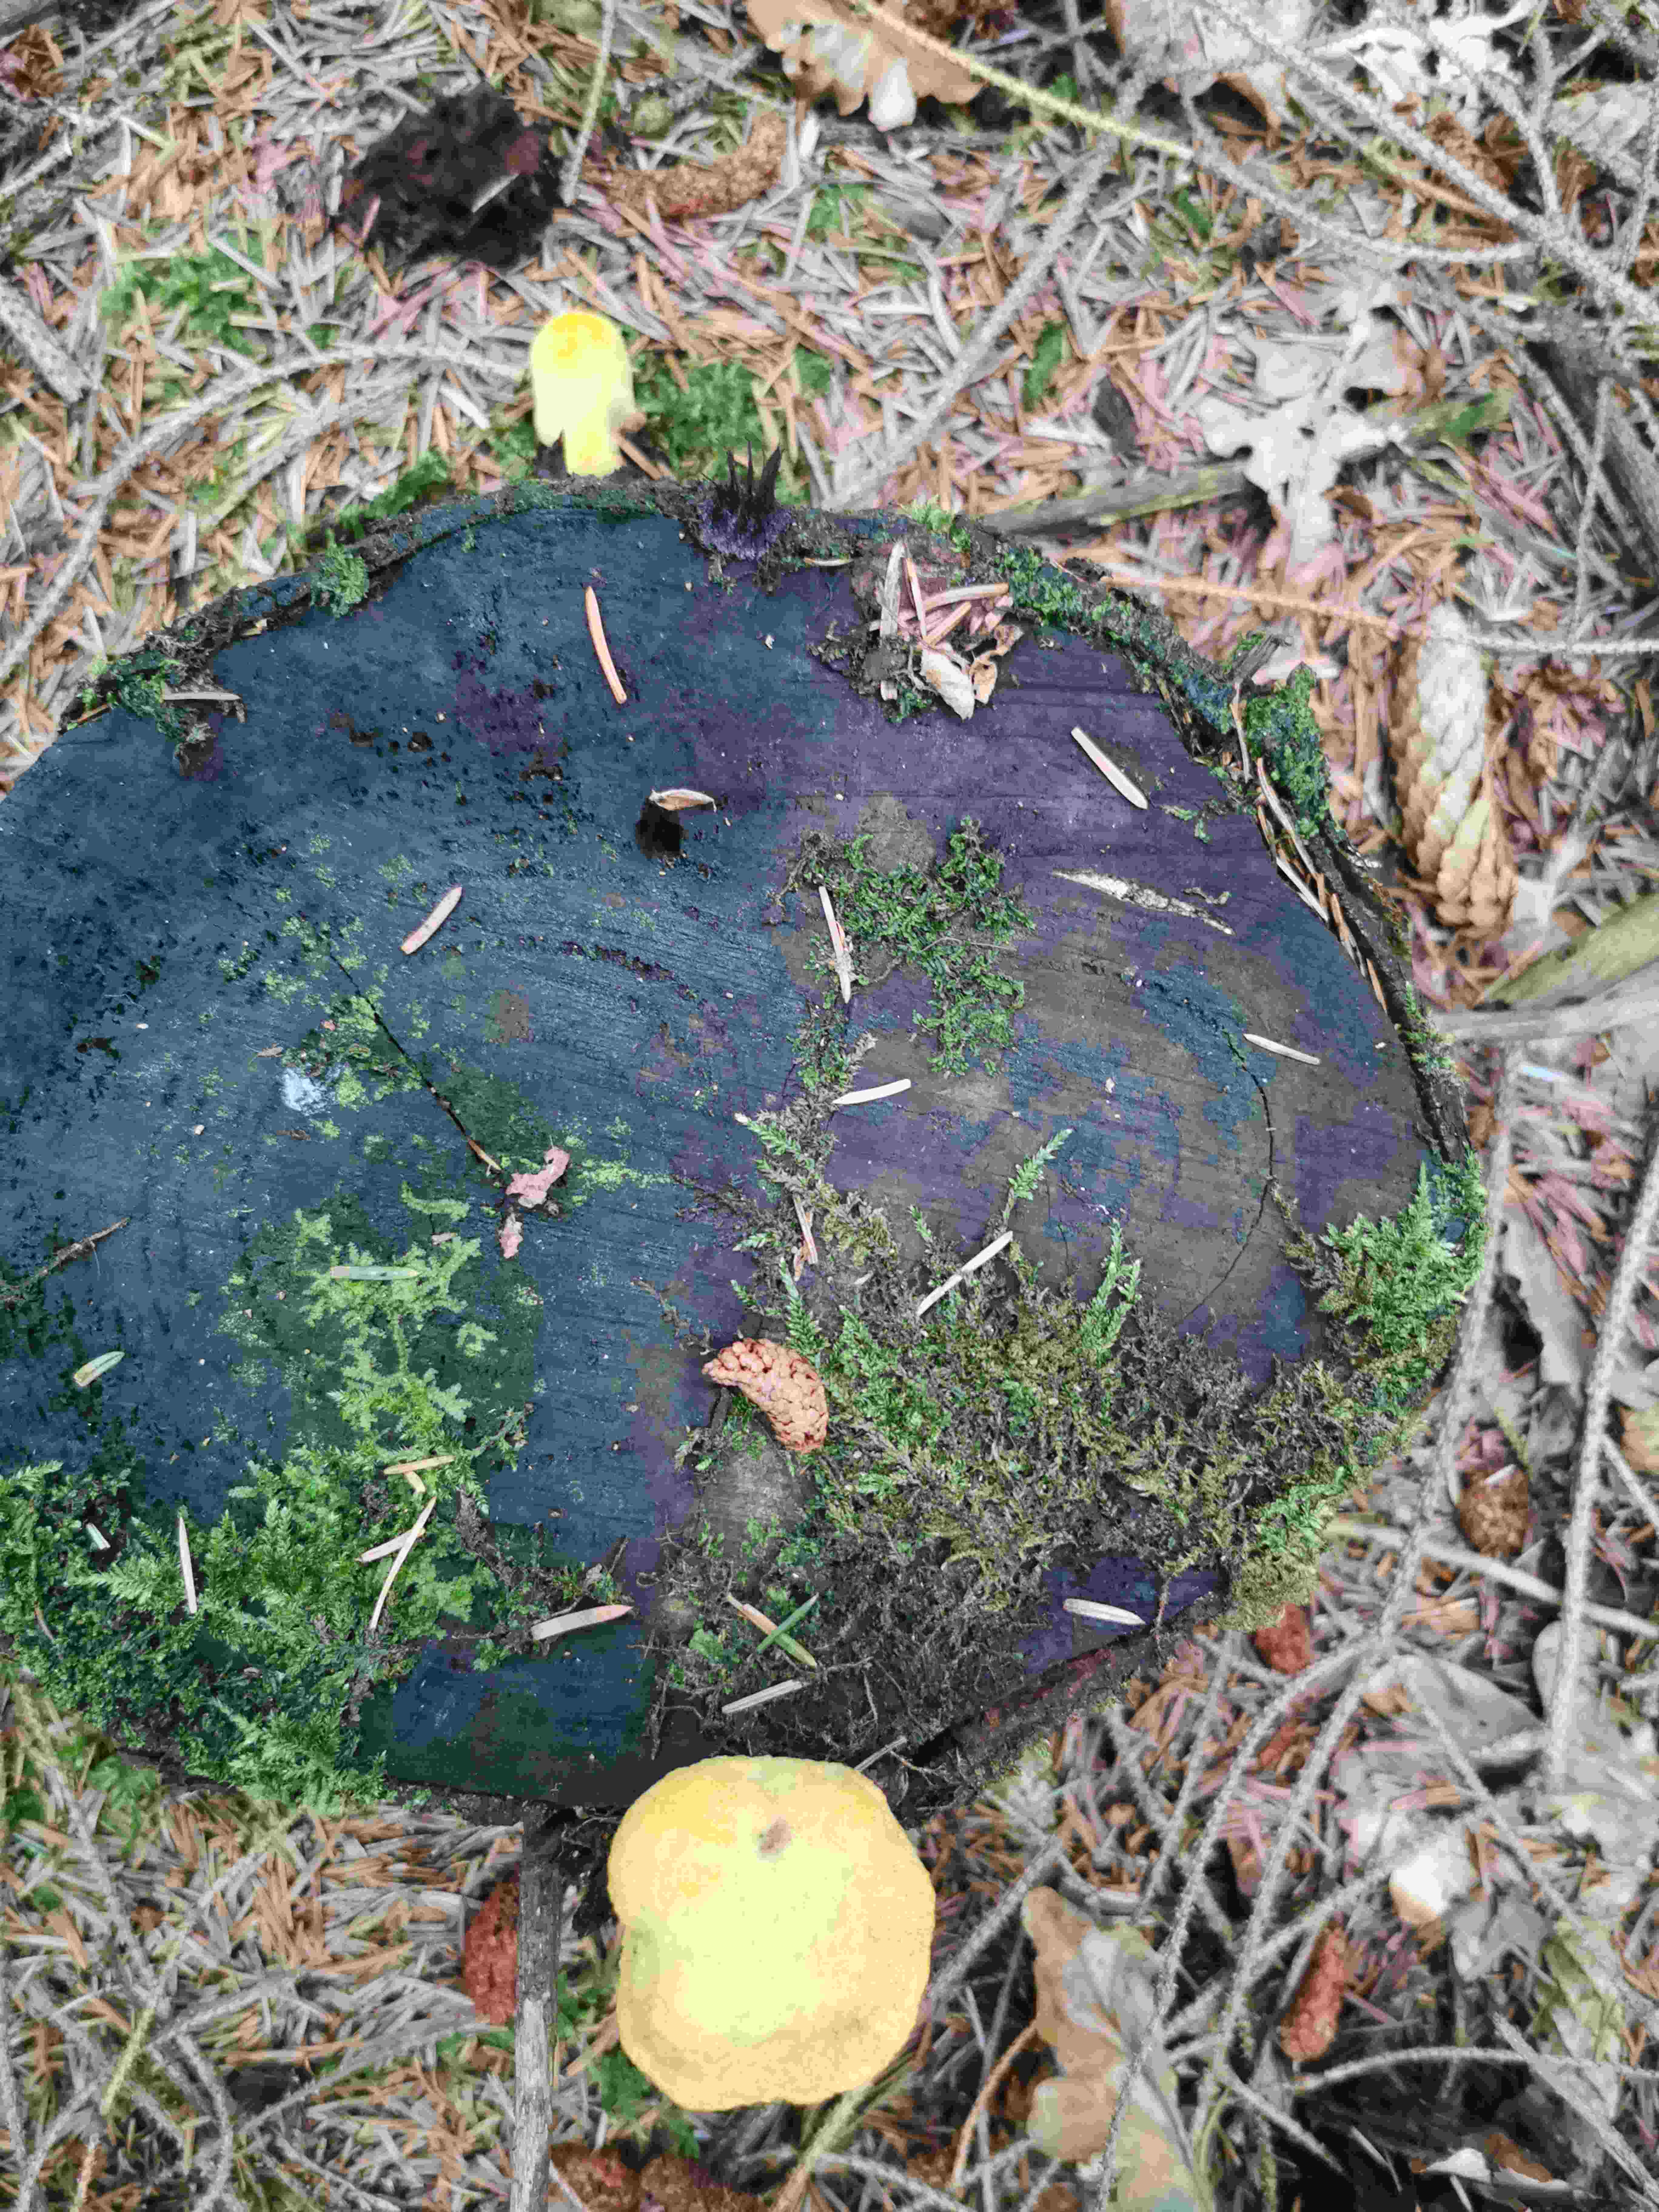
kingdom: Fungi
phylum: Basidiomycota
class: Agaricomycetes
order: Polyporales
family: Laetiporaceae
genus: Phaeolus
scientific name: Phaeolus schweinitzii
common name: brunporesvamp
